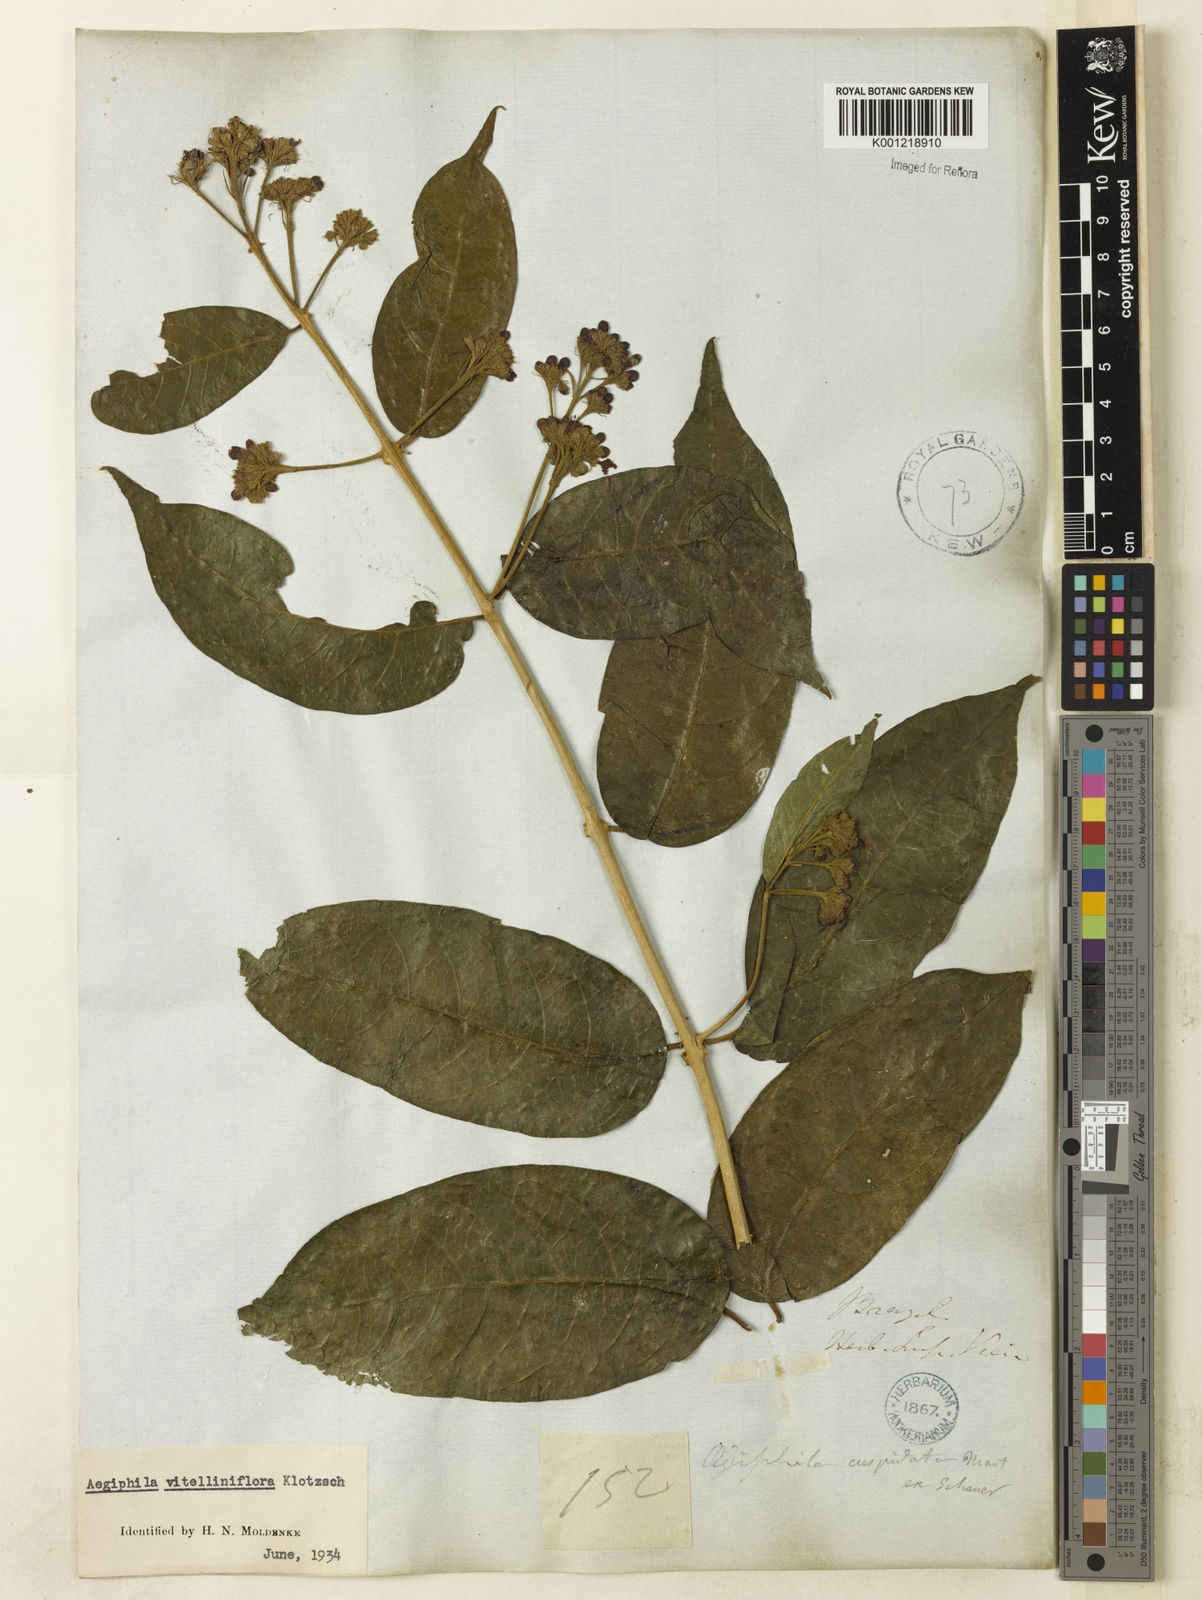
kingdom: Plantae
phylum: Tracheophyta
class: Magnoliopsida
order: Lamiales
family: Lamiaceae
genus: Aegiphila
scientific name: Aegiphila
